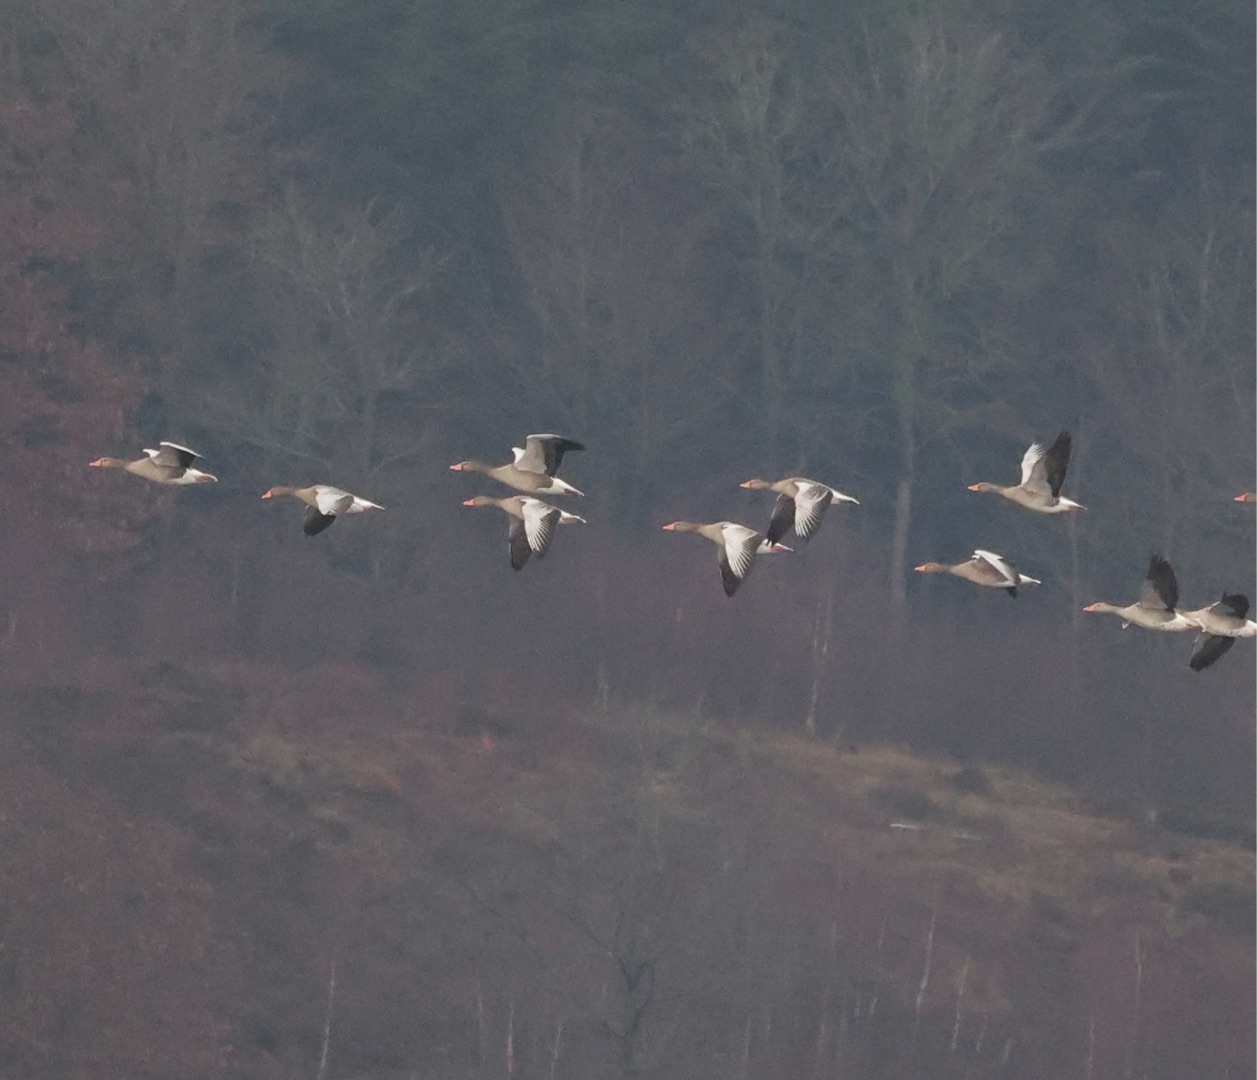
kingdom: Animalia
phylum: Chordata
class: Aves
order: Anseriformes
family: Anatidae
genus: Anser
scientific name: Anser anser
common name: Grågås
